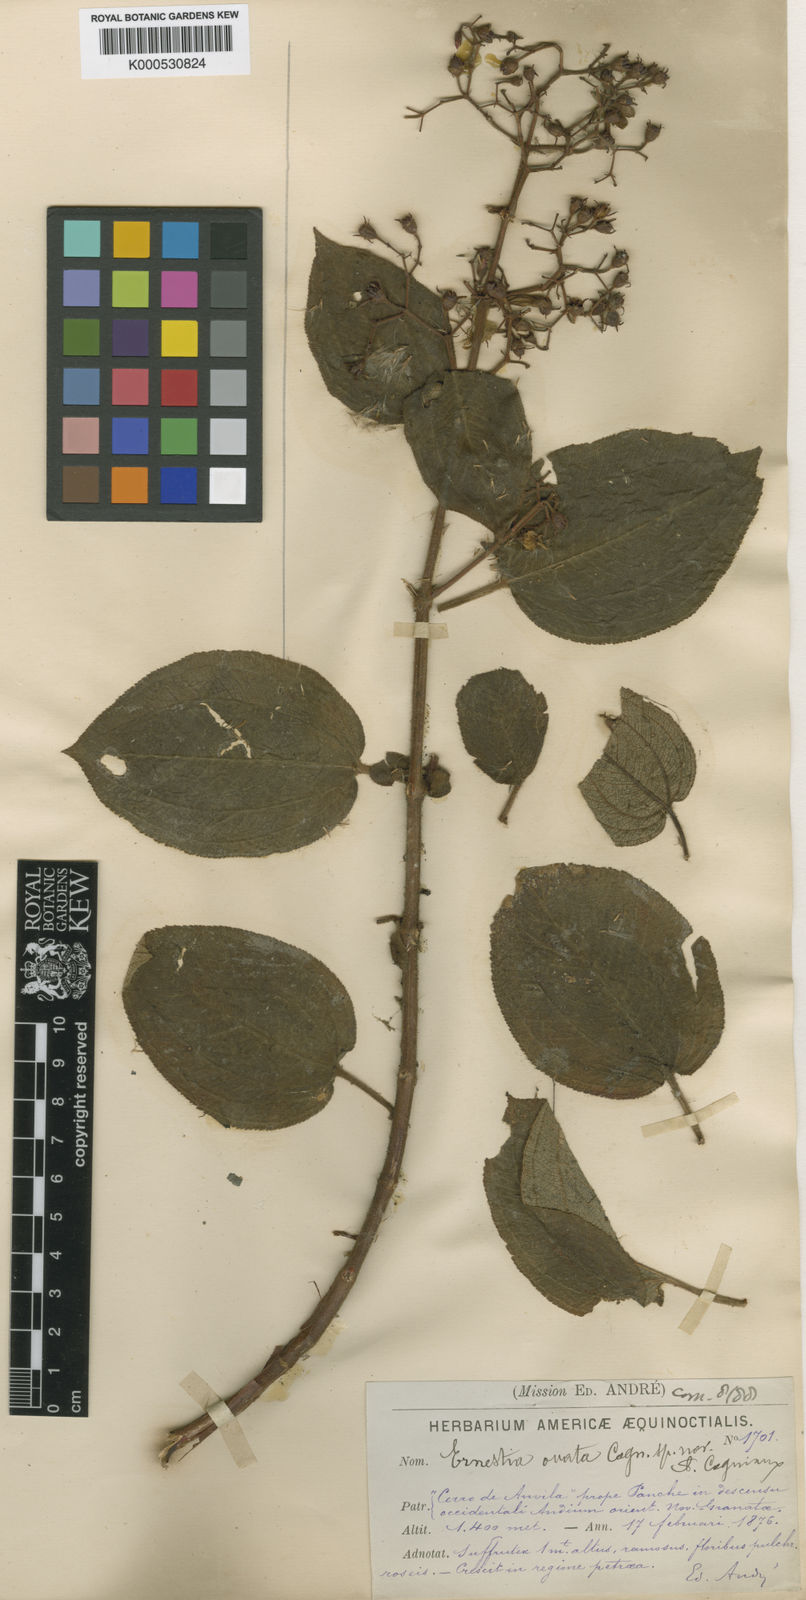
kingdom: Plantae
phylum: Tracheophyta
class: Magnoliopsida
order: Myrtales
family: Melastomataceae
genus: Ernestia
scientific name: Ernestia ovata
